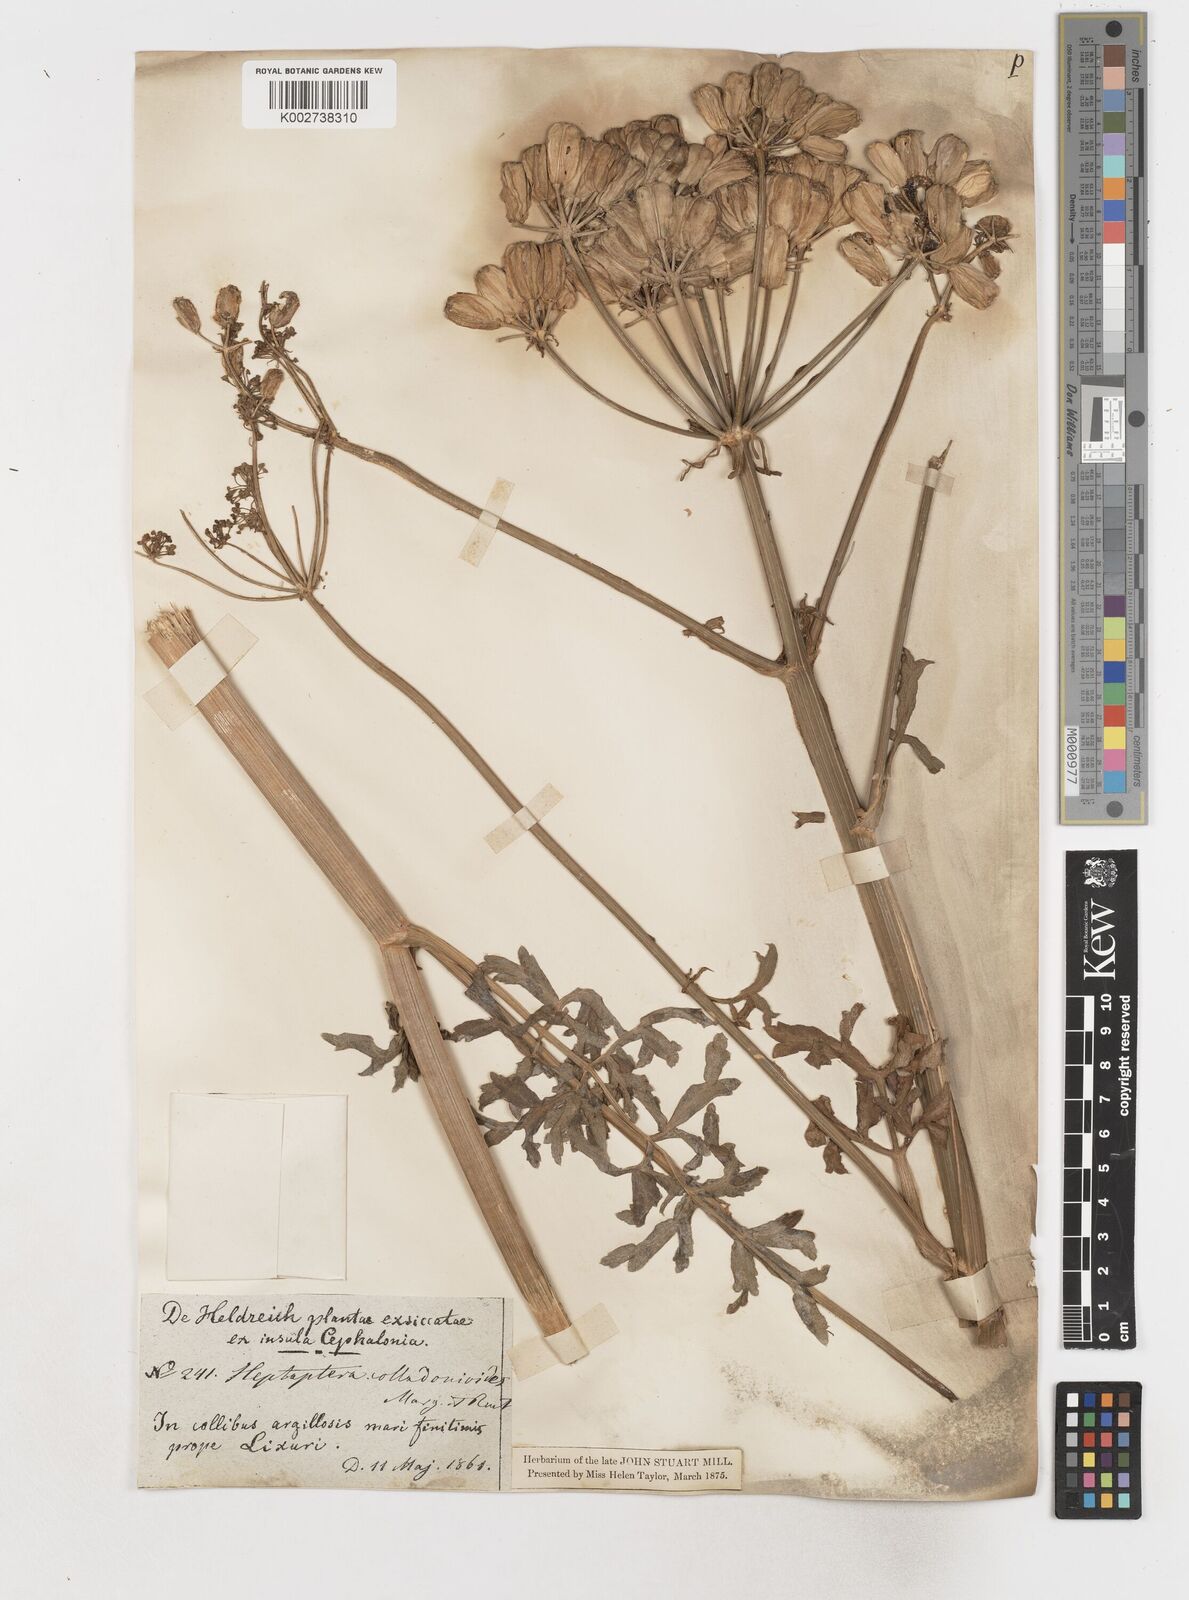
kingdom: Plantae
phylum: Tracheophyta
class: Magnoliopsida
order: Apiales
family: Apiaceae
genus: Heptaptera
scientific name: Heptaptera colladonioides
